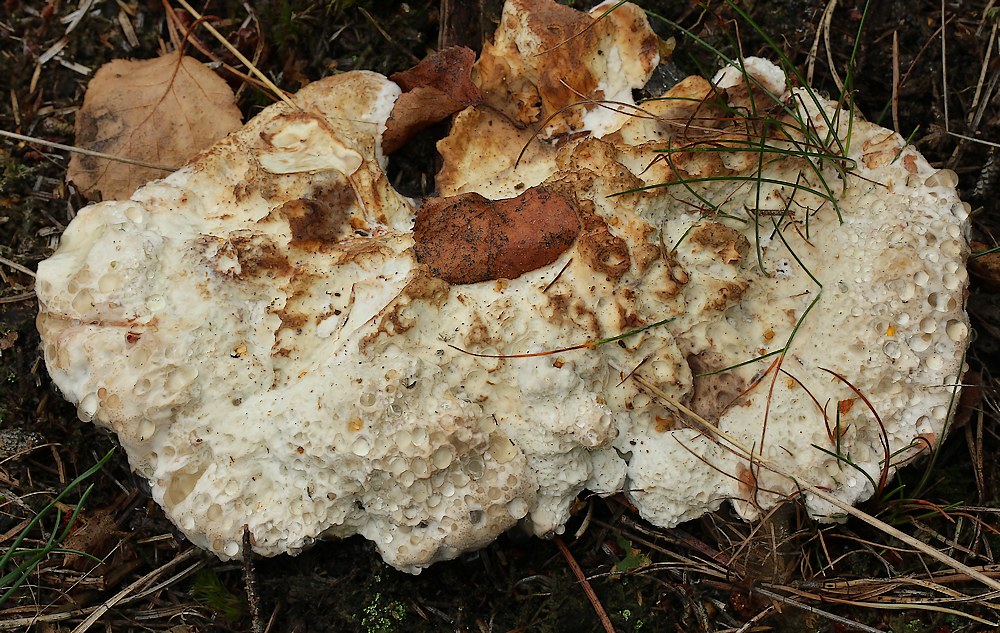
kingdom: Fungi
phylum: Basidiomycota
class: Agaricomycetes
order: Polyporales
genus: Calcipostia
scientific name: Calcipostia guttulata
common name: dråbe-kødporesvamp
